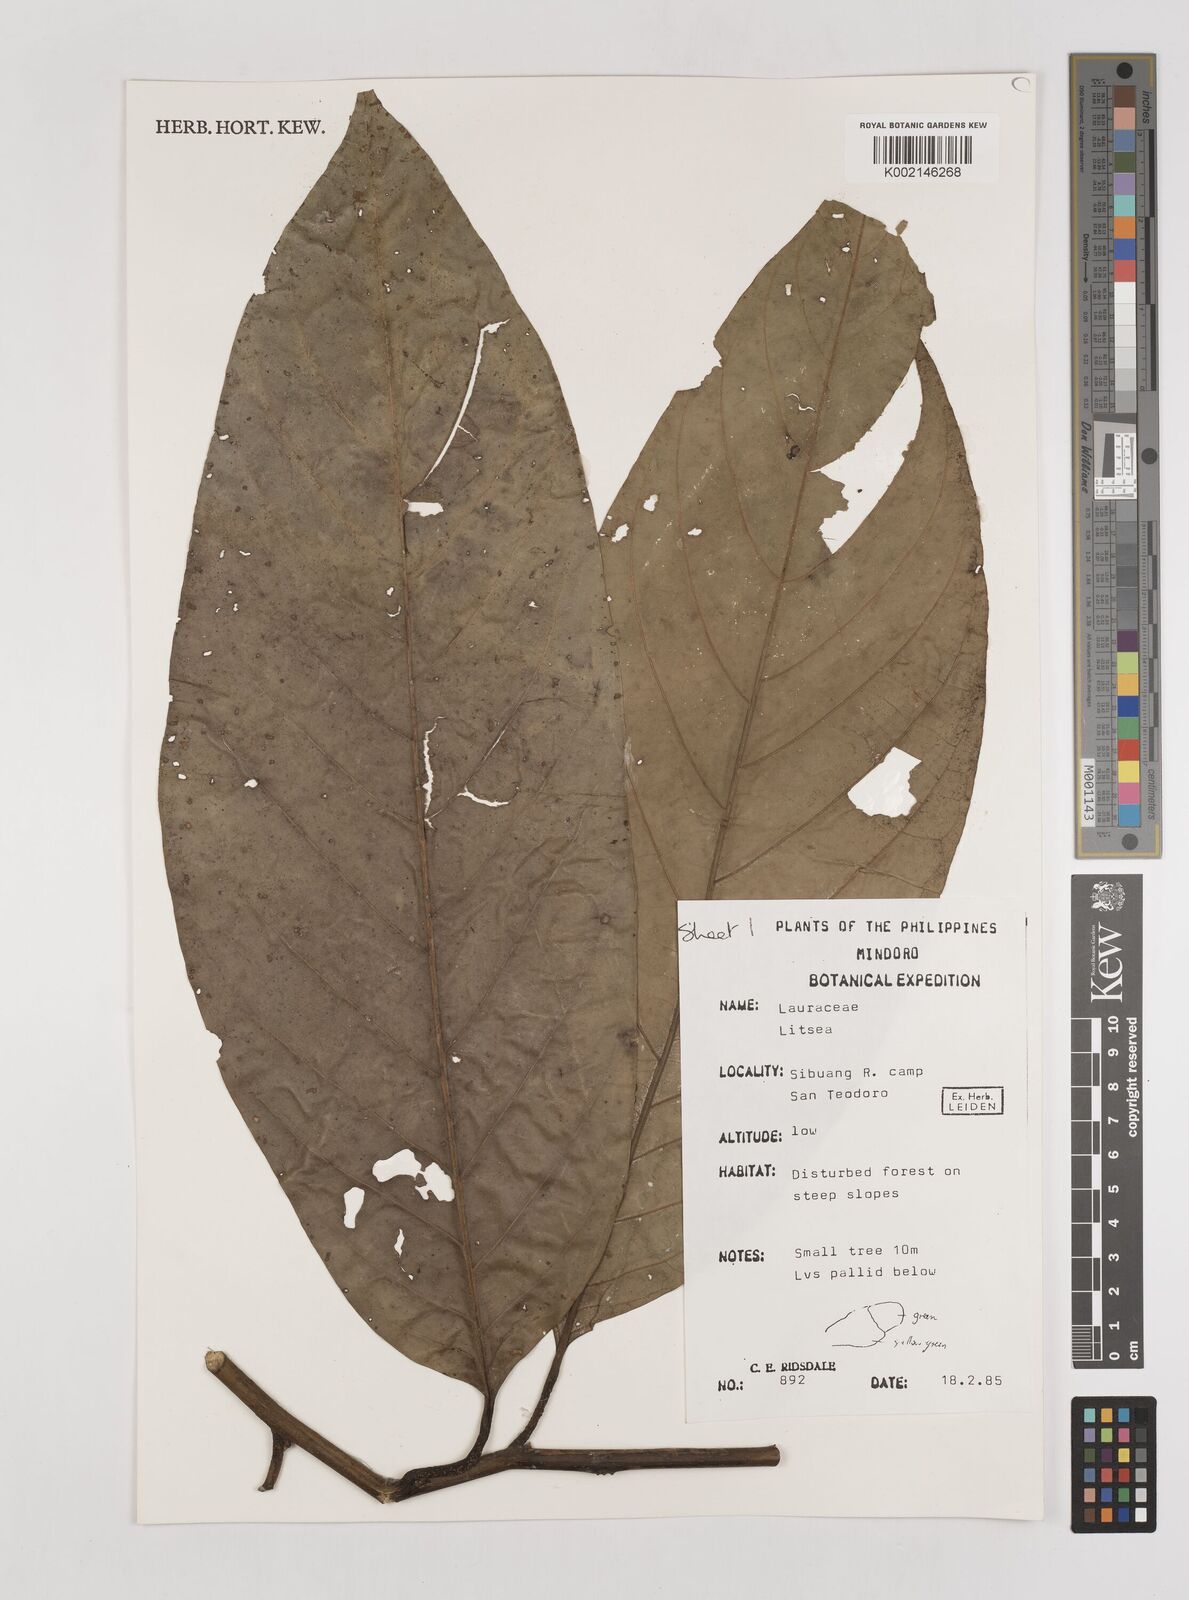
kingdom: Plantae
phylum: Tracheophyta
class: Magnoliopsida
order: Laurales
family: Lauraceae
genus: Litsea
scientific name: Litsea
